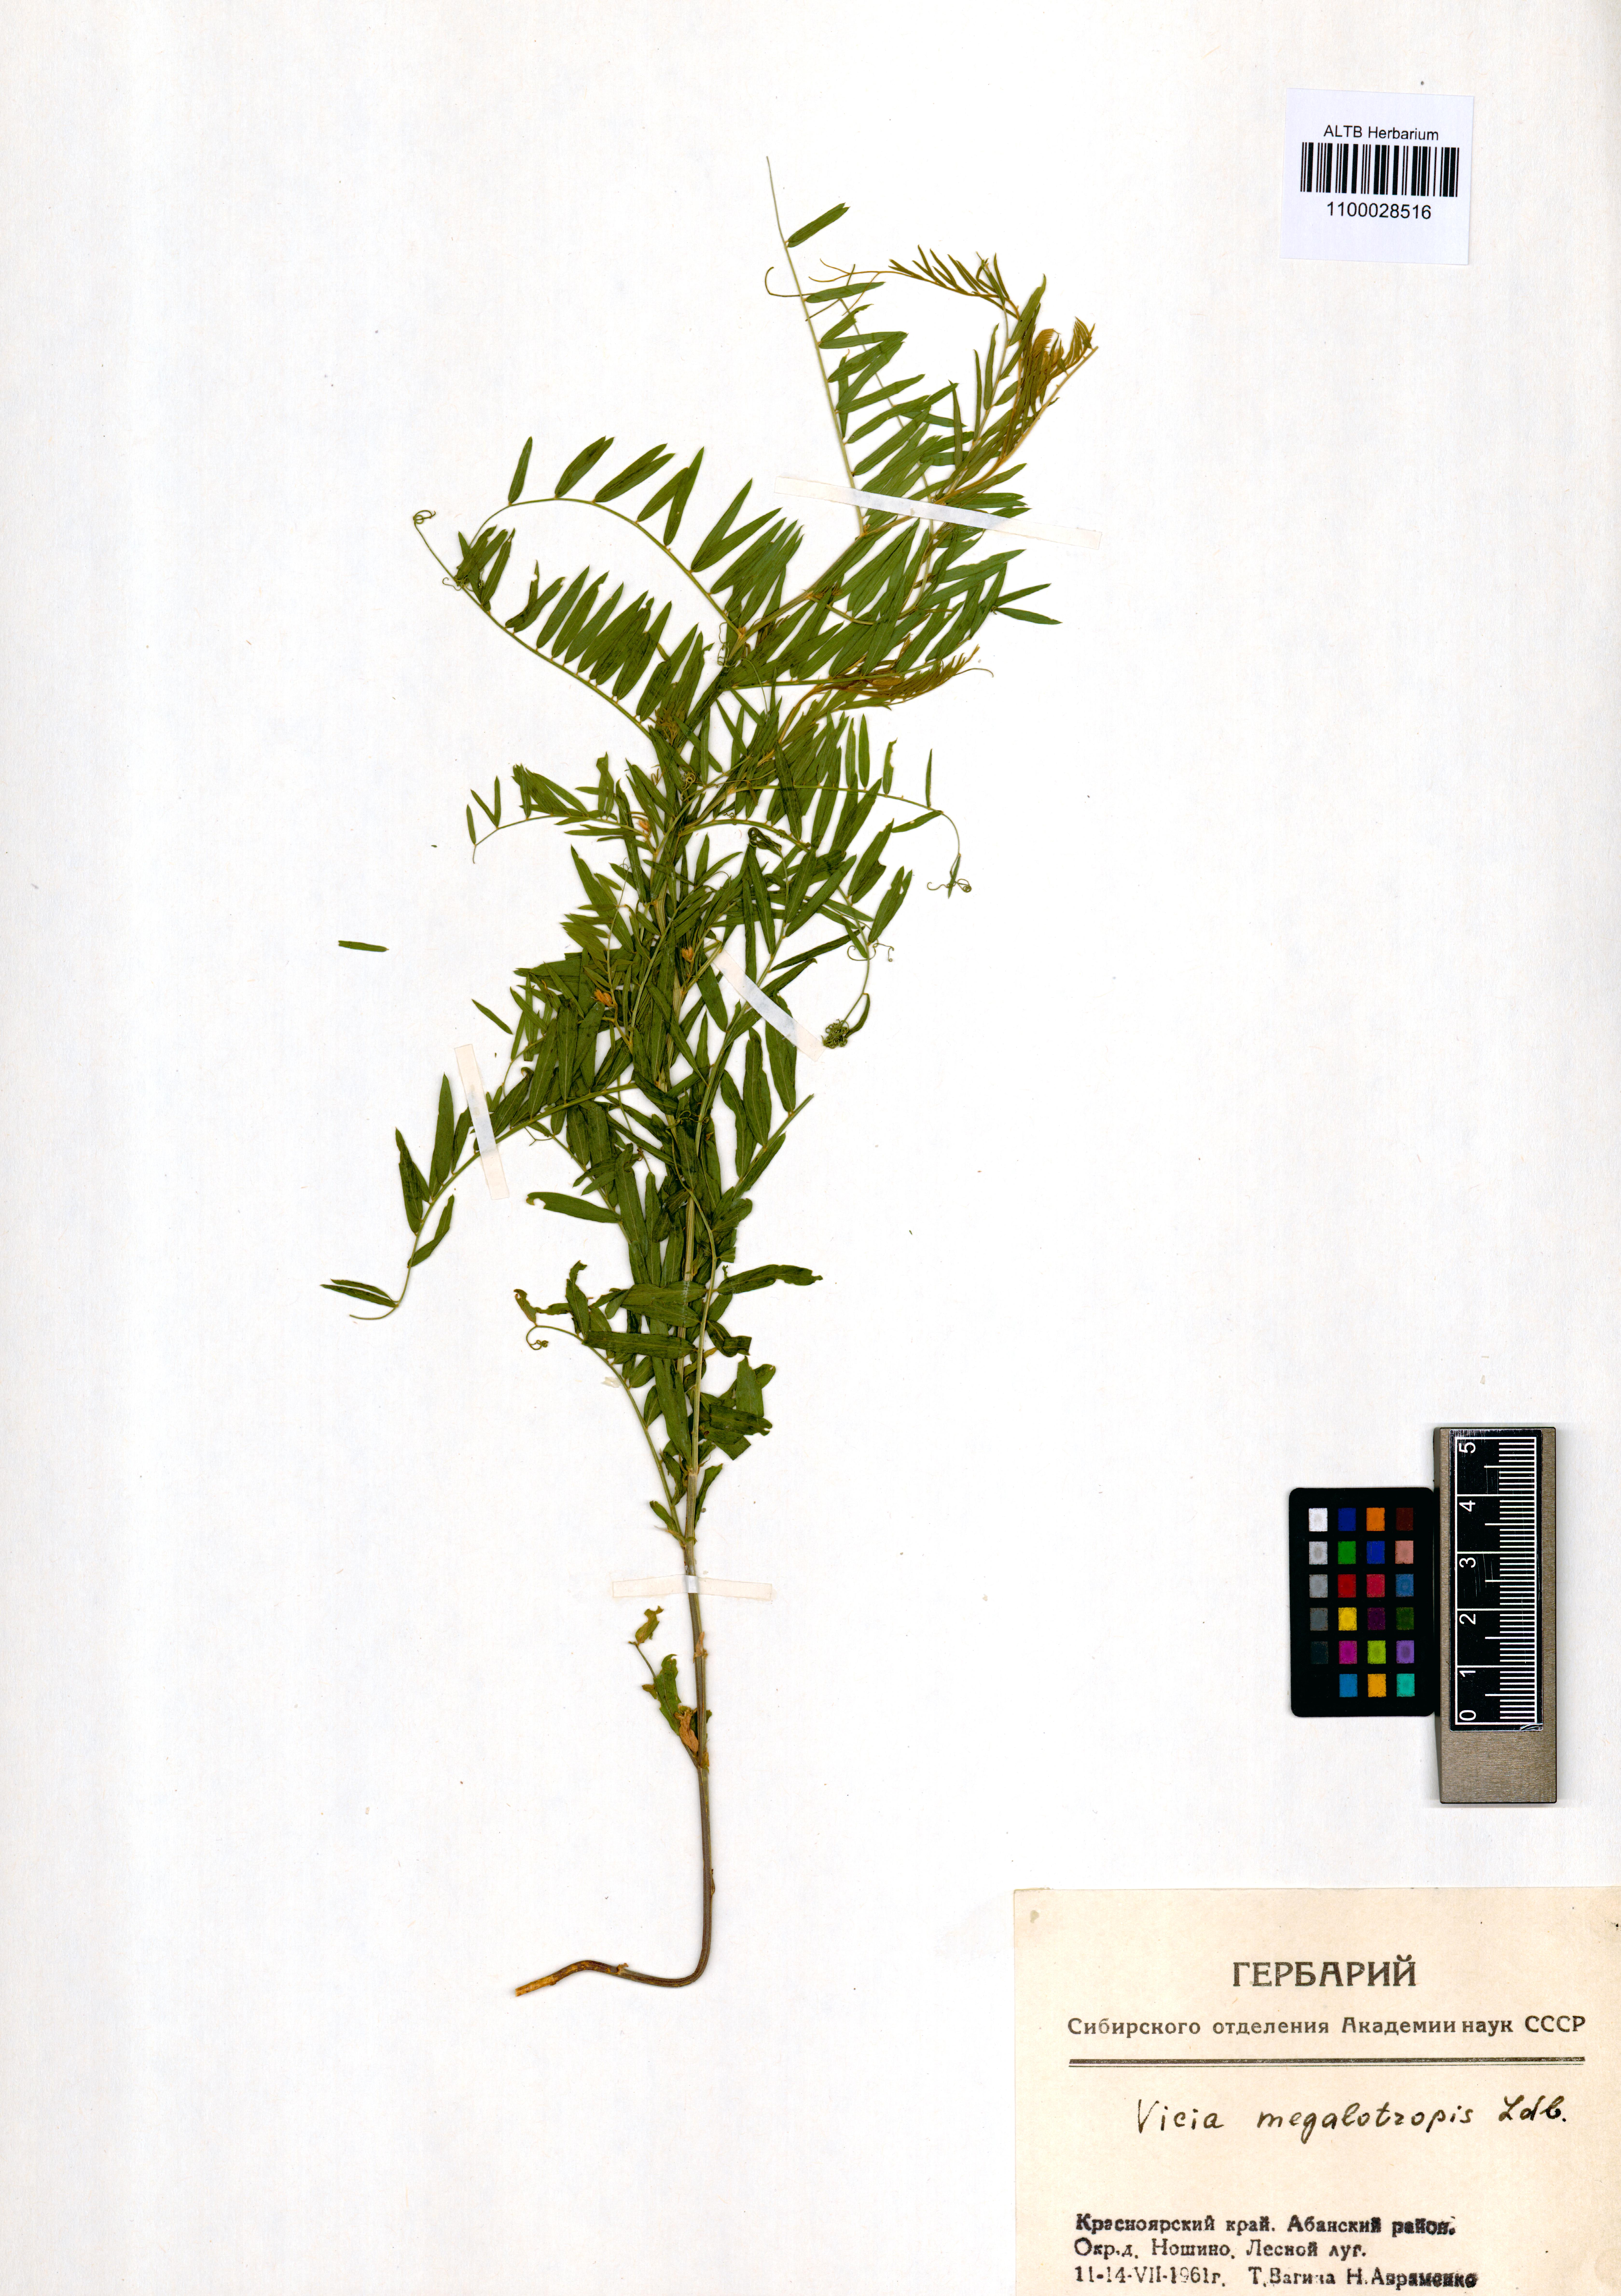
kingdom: Plantae
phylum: Tracheophyta
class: Magnoliopsida
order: Fabales
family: Fabaceae
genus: Vicia
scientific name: Vicia megalotropis
